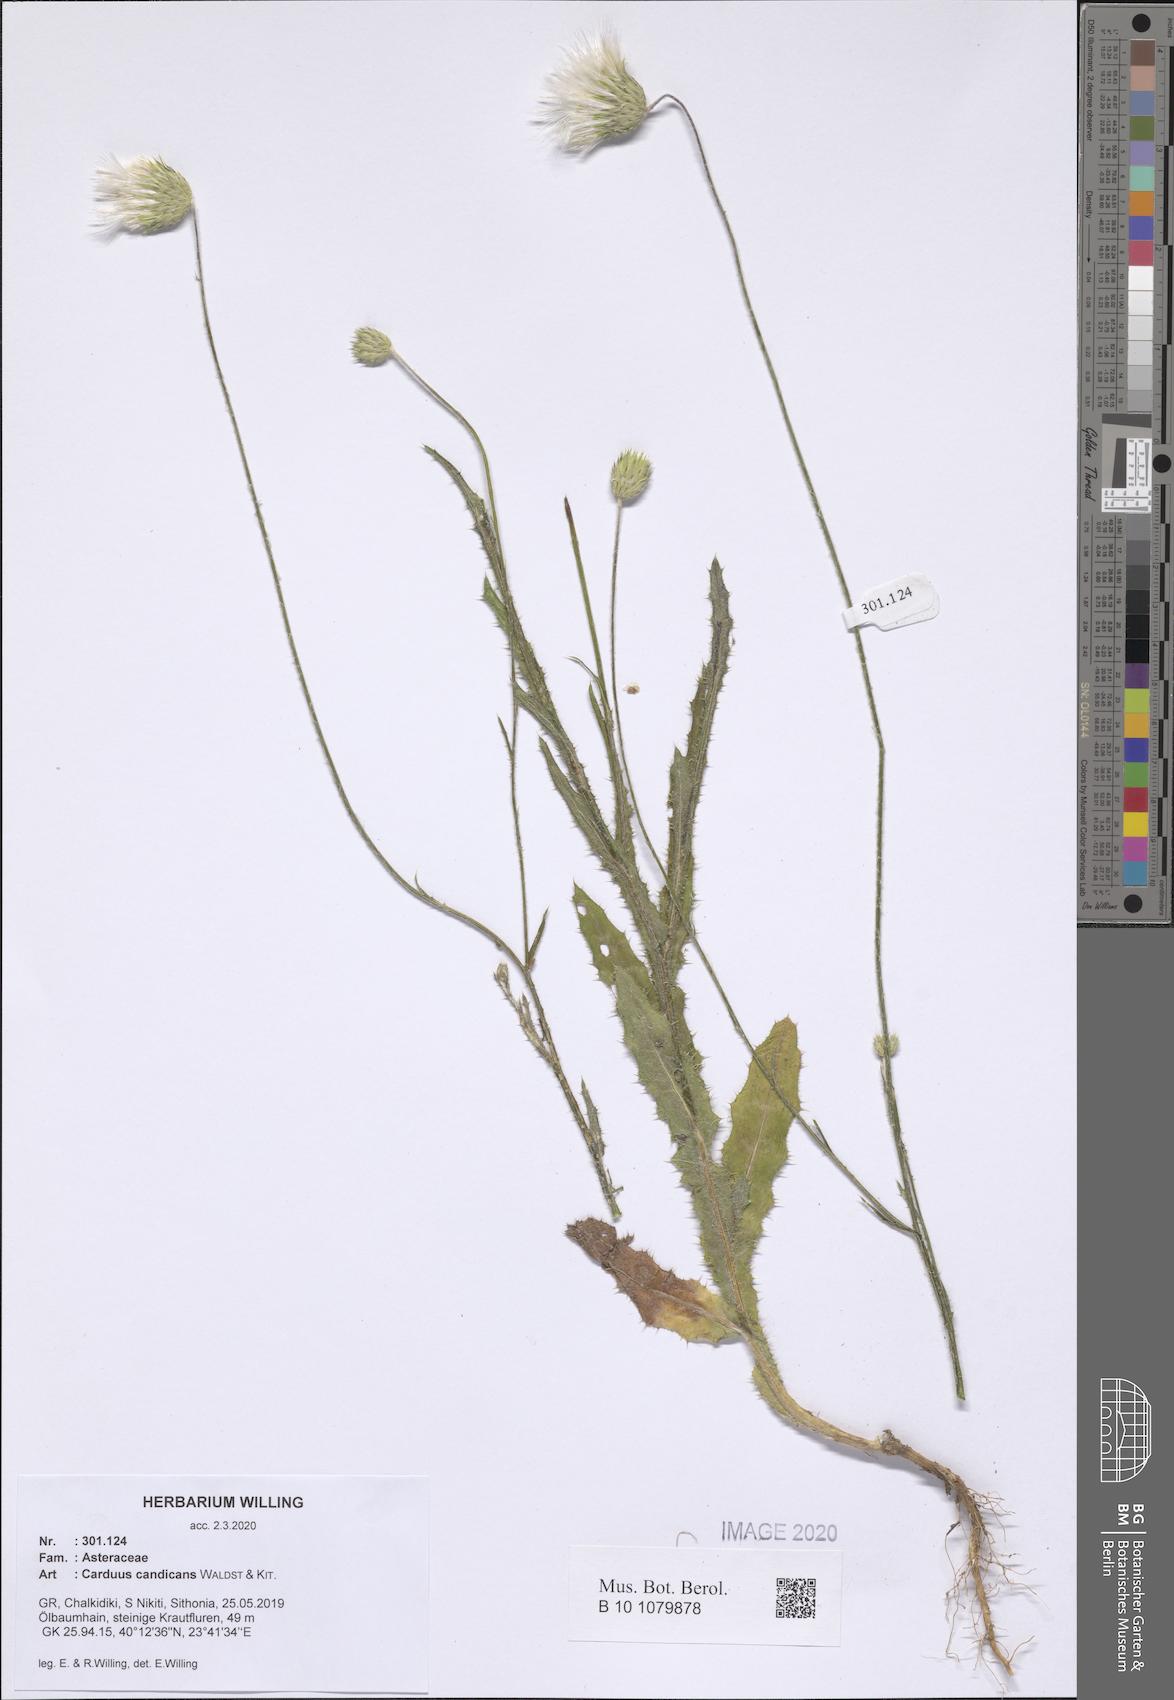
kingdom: Plantae
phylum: Tracheophyta
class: Magnoliopsida
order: Asterales
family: Asteraceae
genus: Carduus
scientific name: Carduus candicans
